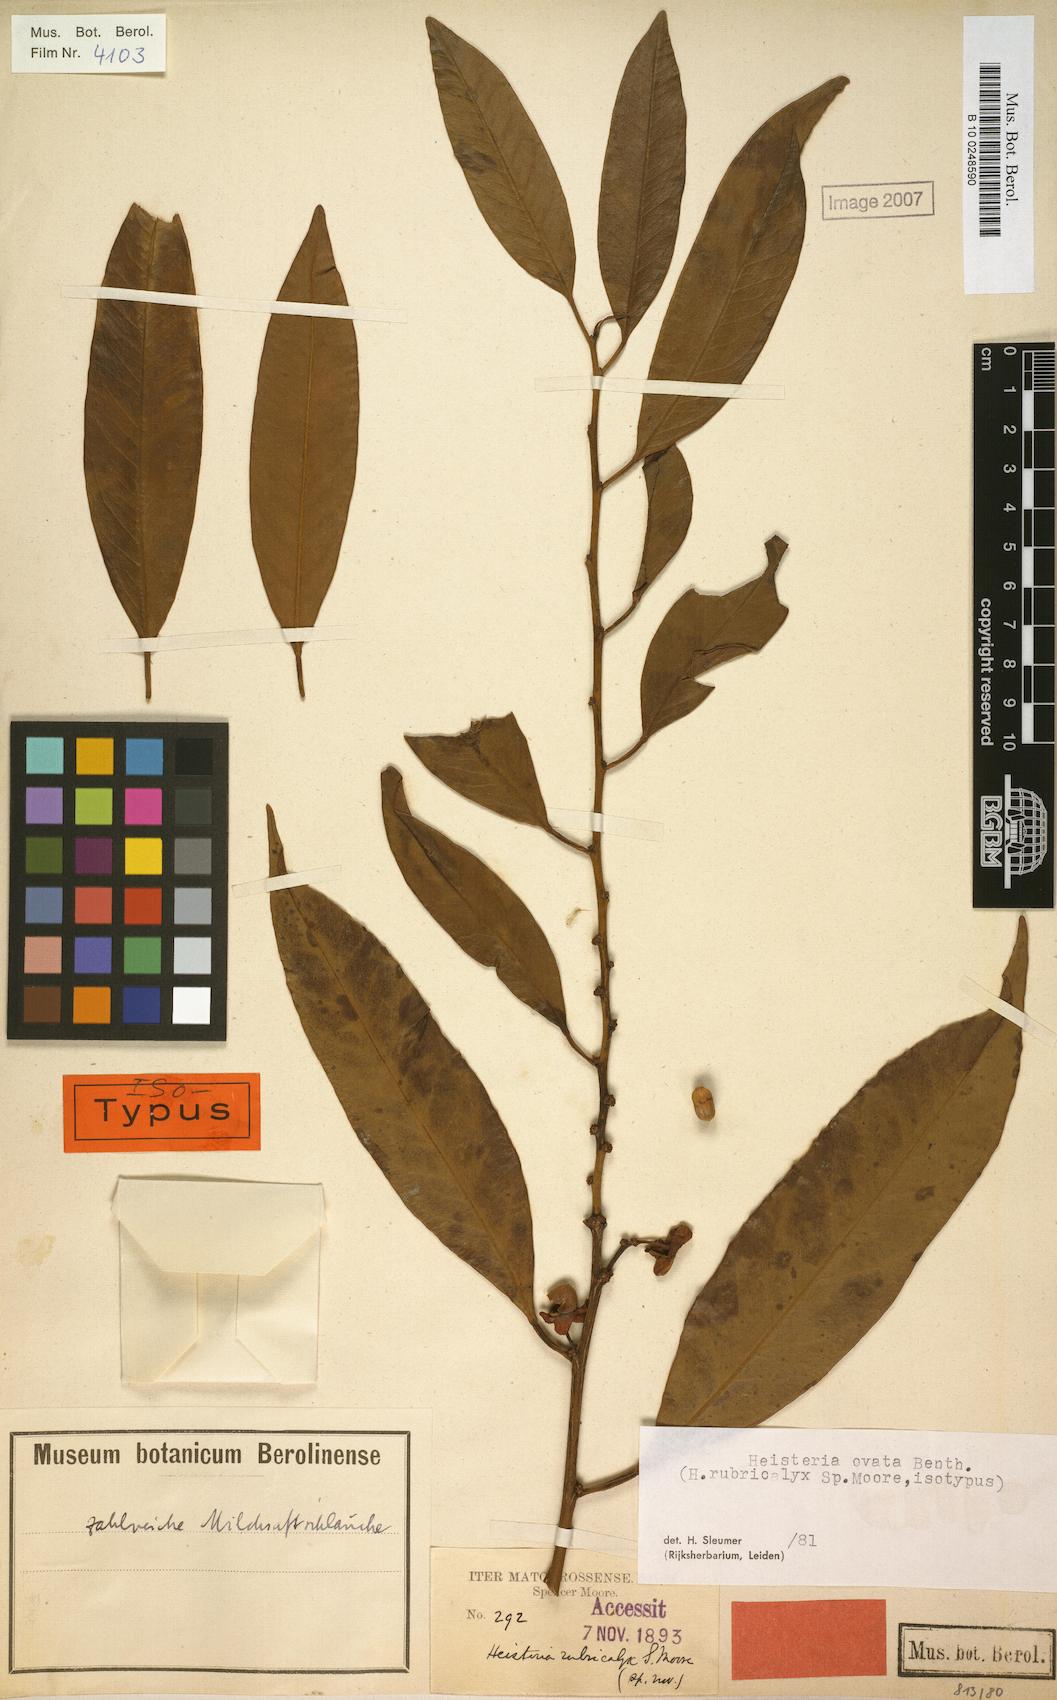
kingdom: Plantae
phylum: Tracheophyta
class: Magnoliopsida
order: Santalales
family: Erythropalaceae
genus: Heisteria
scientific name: Heisteria ovata
